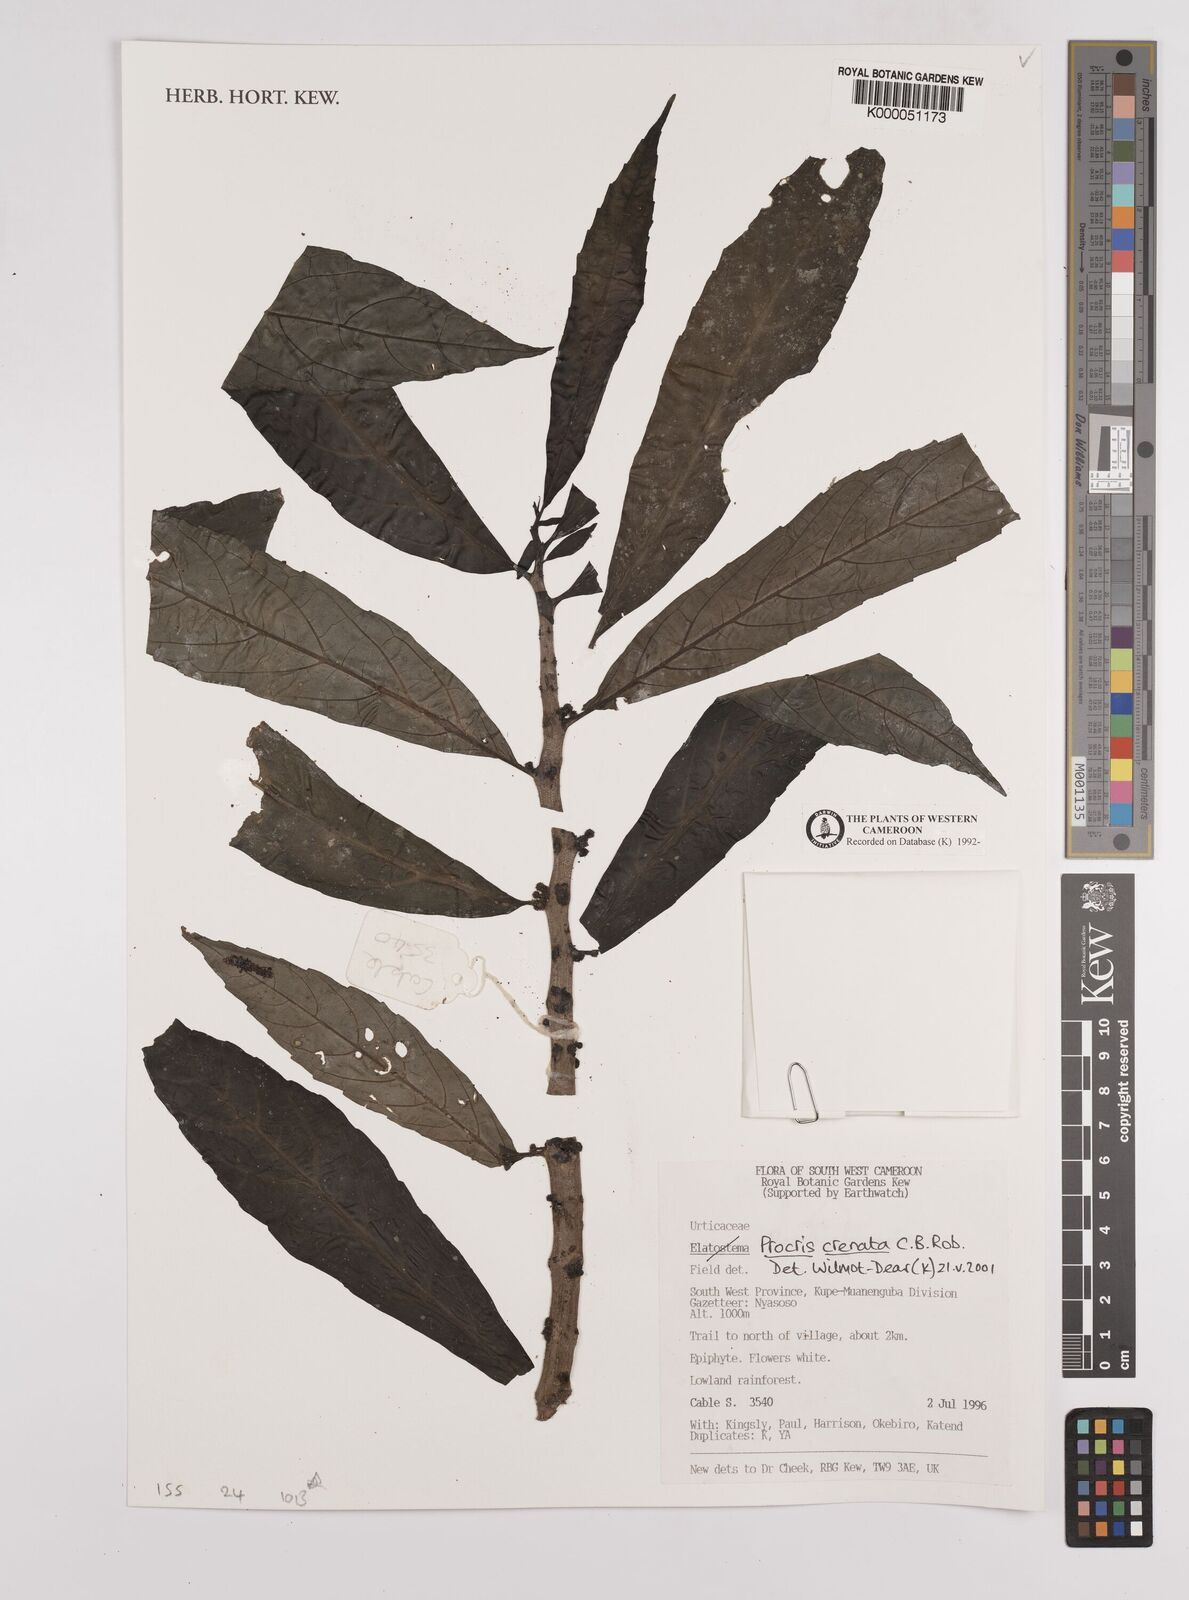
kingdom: Plantae
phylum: Tracheophyta
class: Magnoliopsida
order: Rosales
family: Urticaceae
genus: Procris
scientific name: Procris crenata
